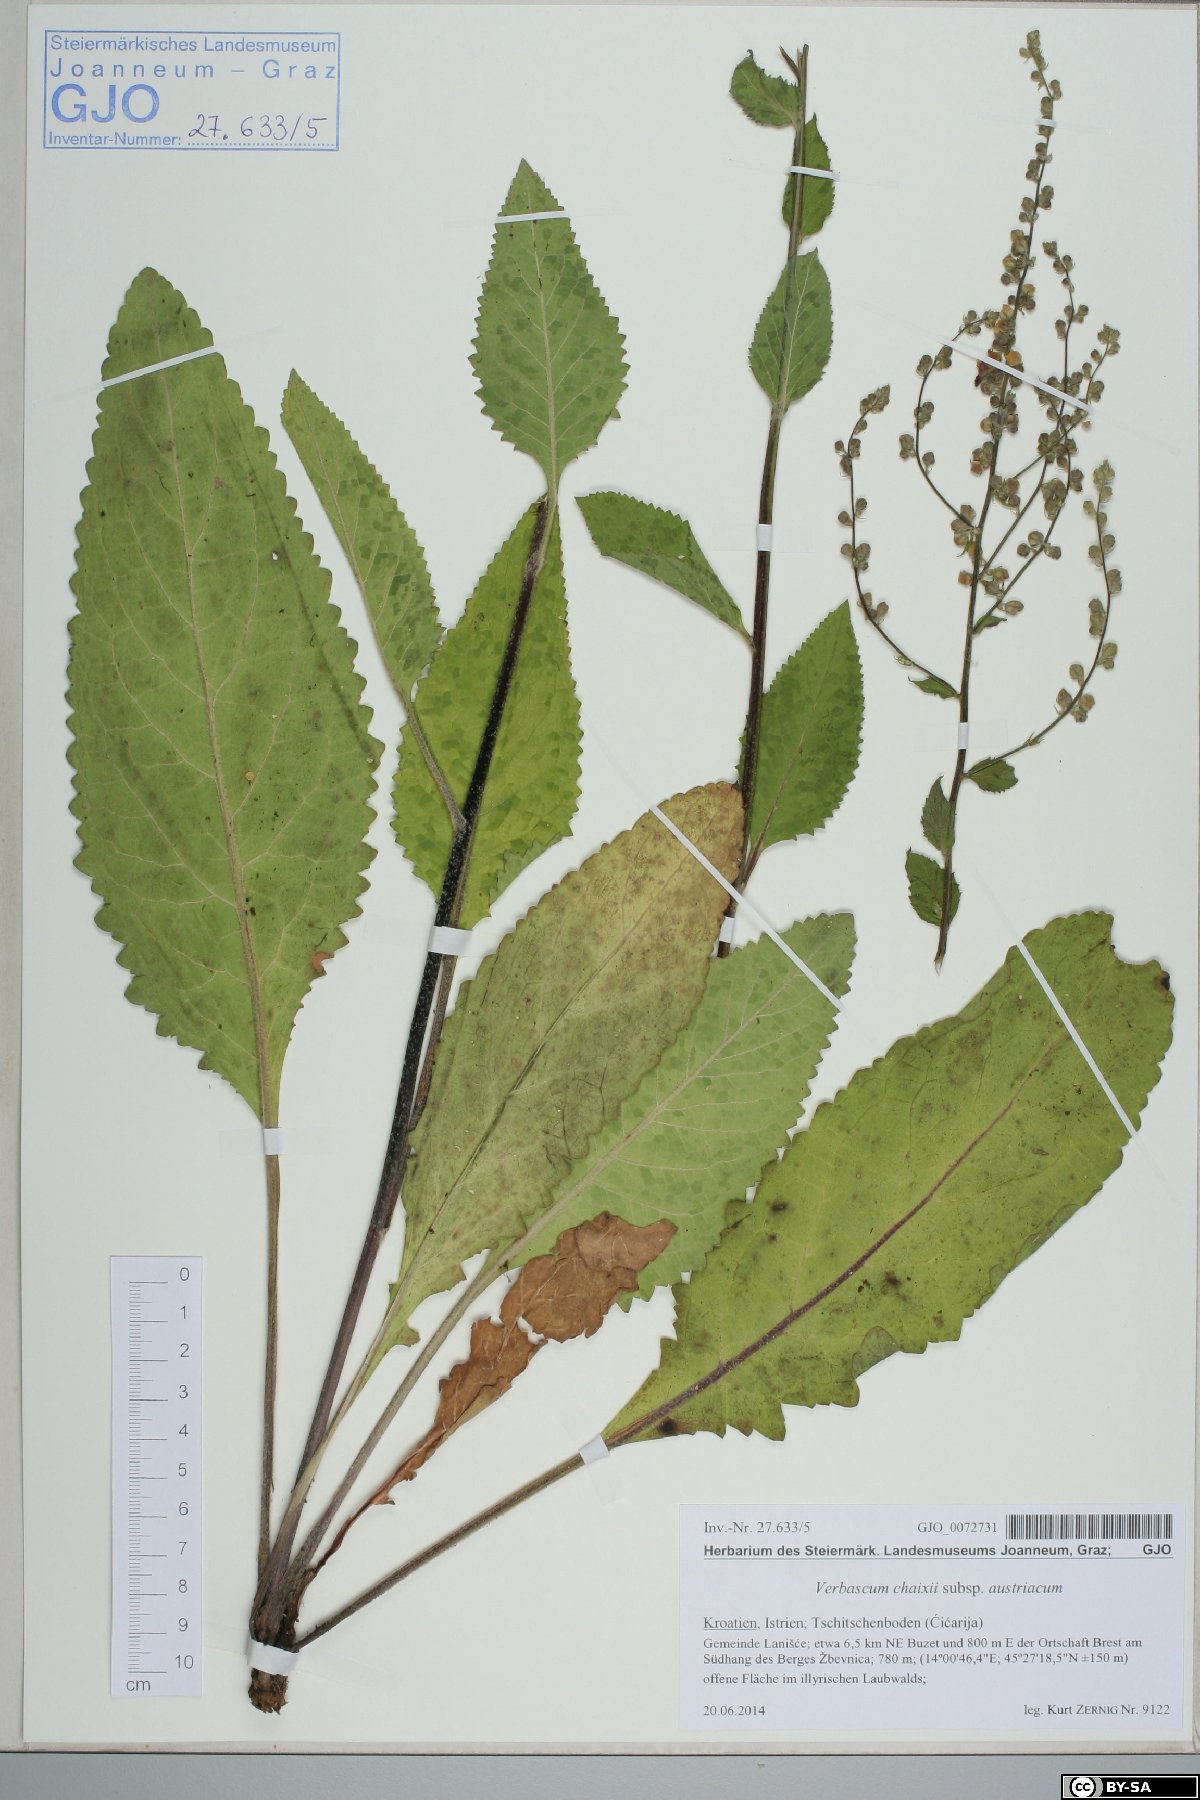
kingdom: Plantae
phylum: Tracheophyta
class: Magnoliopsida
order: Lamiales
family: Scrophulariaceae
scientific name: Scrophulariaceae
